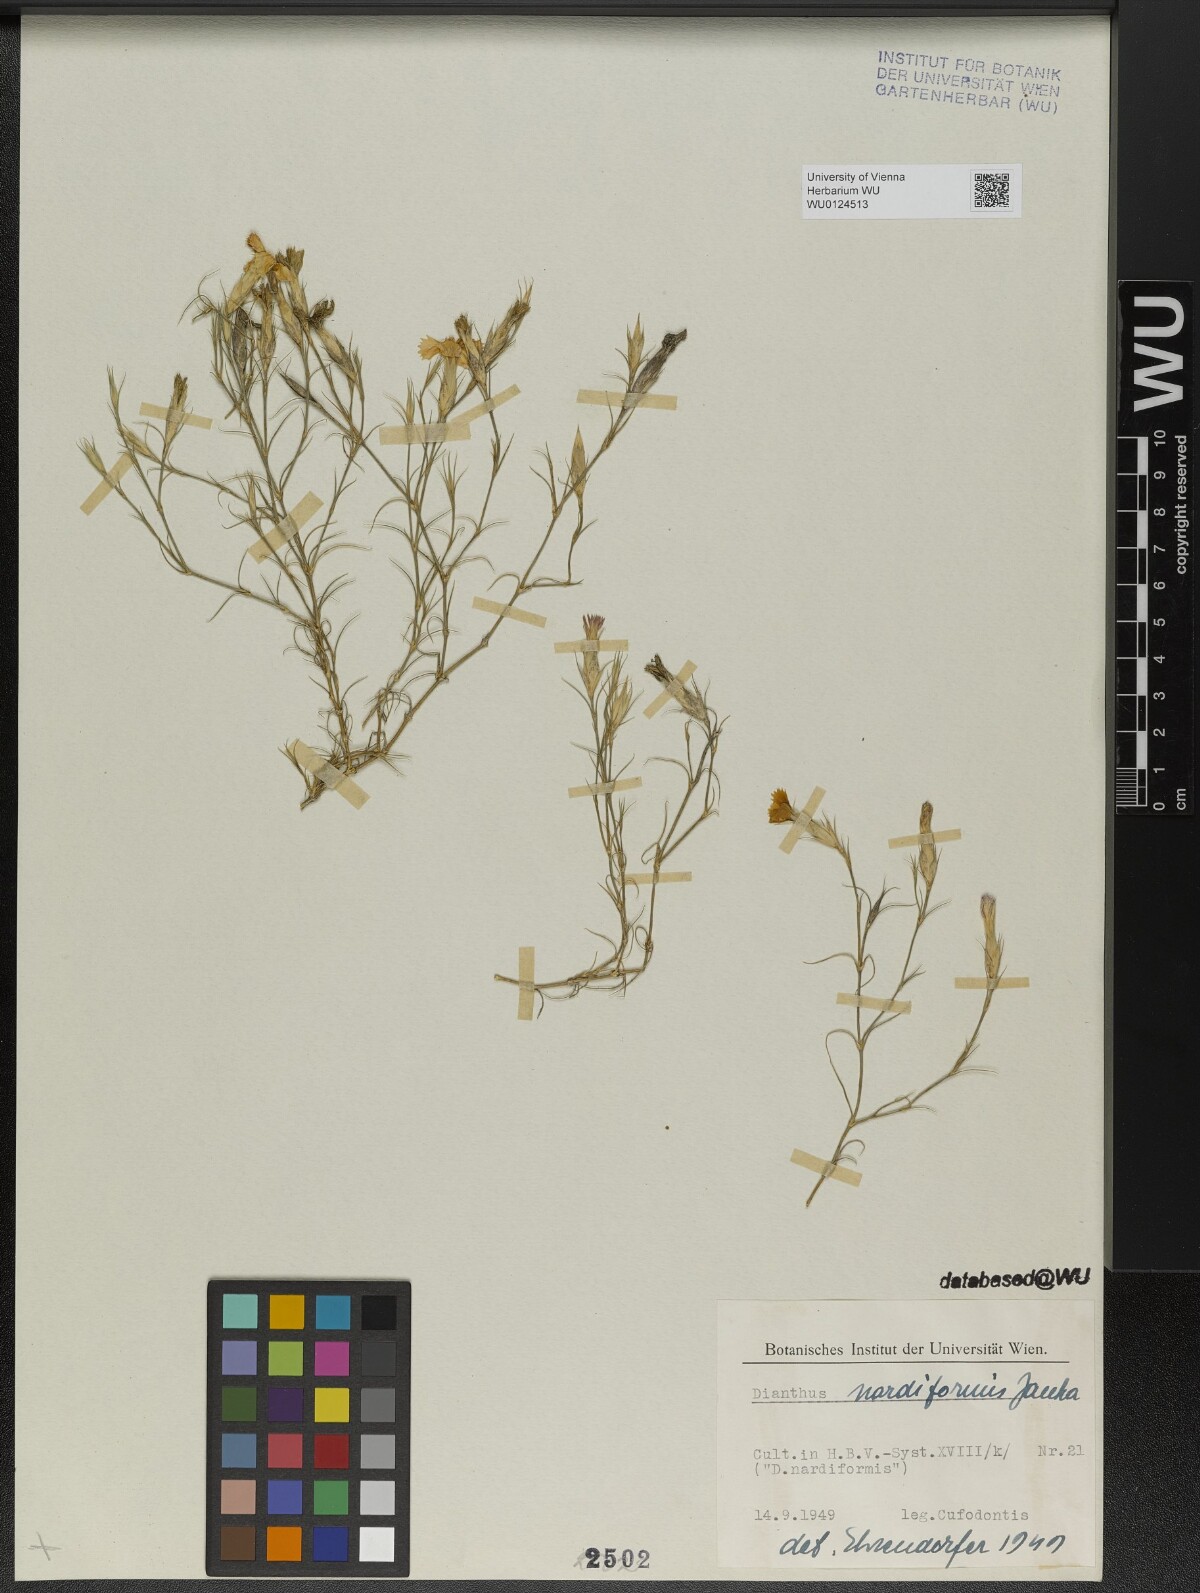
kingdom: Plantae
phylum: Tracheophyta
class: Magnoliopsida
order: Caryophyllales
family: Caryophyllaceae
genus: Dianthus
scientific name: Dianthus nardiformis
